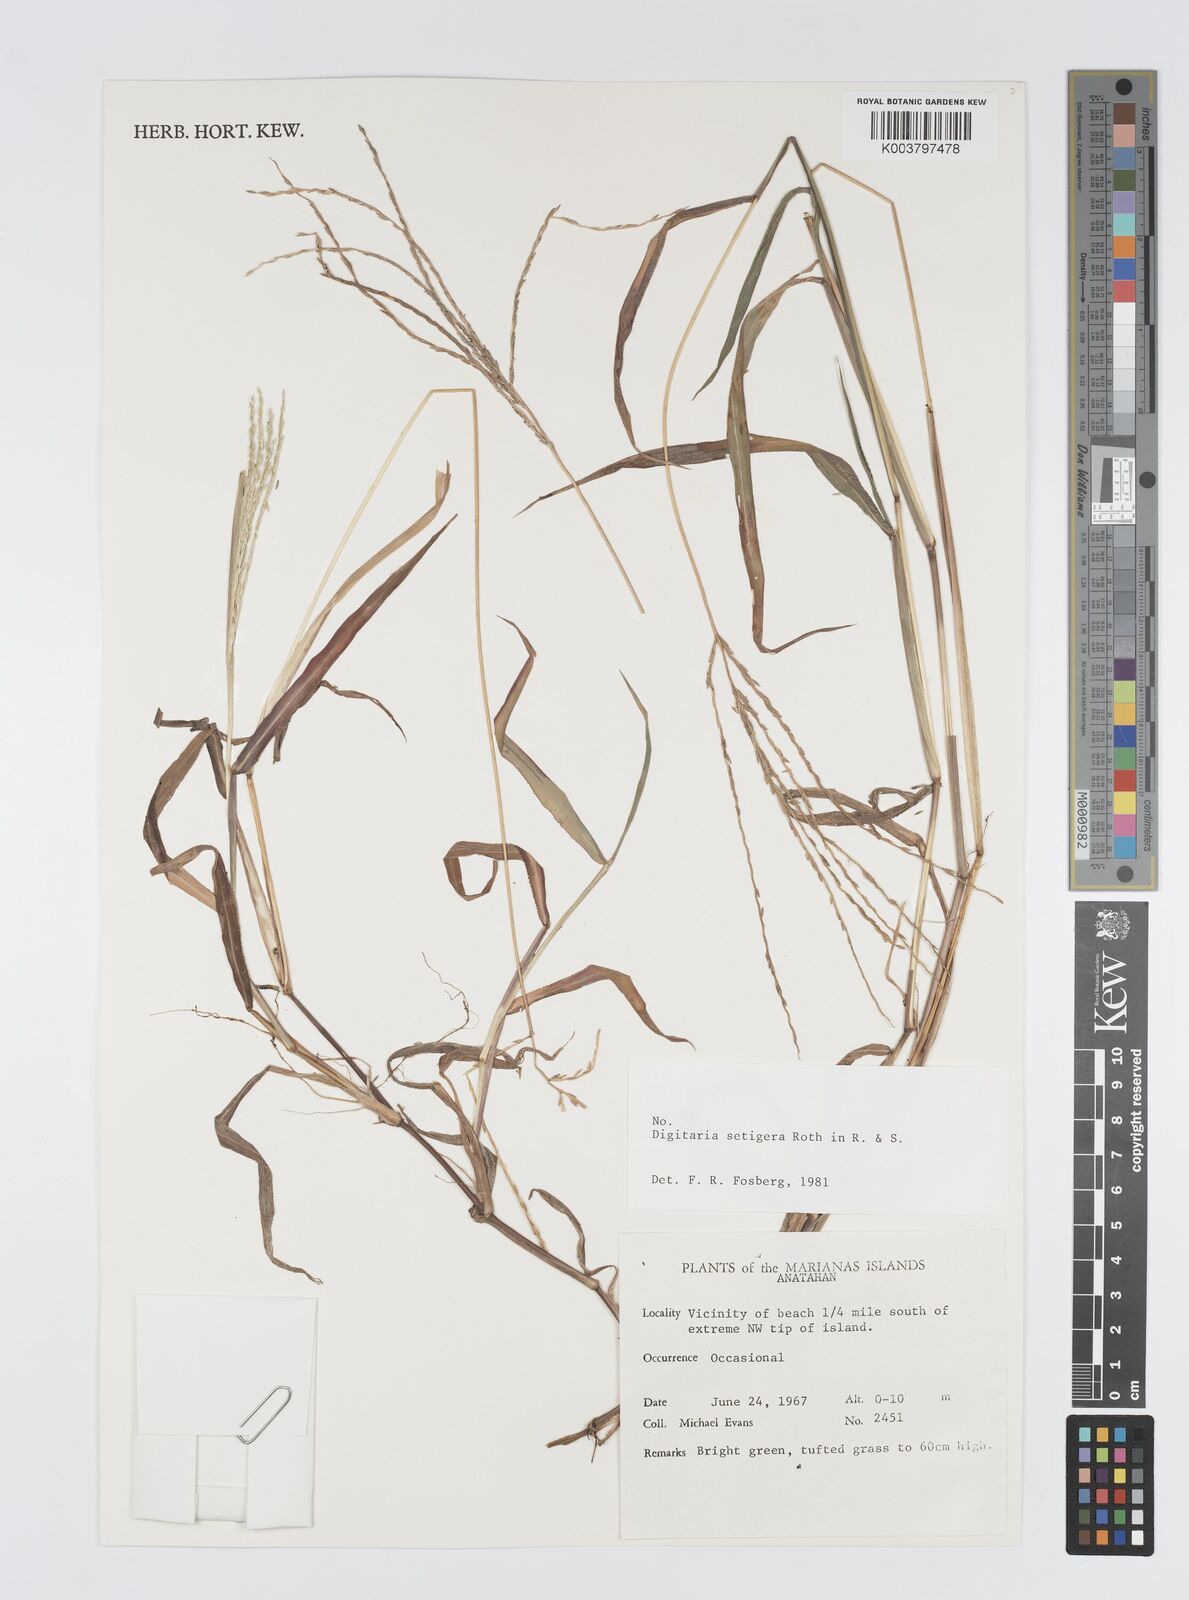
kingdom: Plantae
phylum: Tracheophyta
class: Liliopsida
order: Poales
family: Poaceae
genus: Digitaria
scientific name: Digitaria setigera
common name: East indian crabgrass
